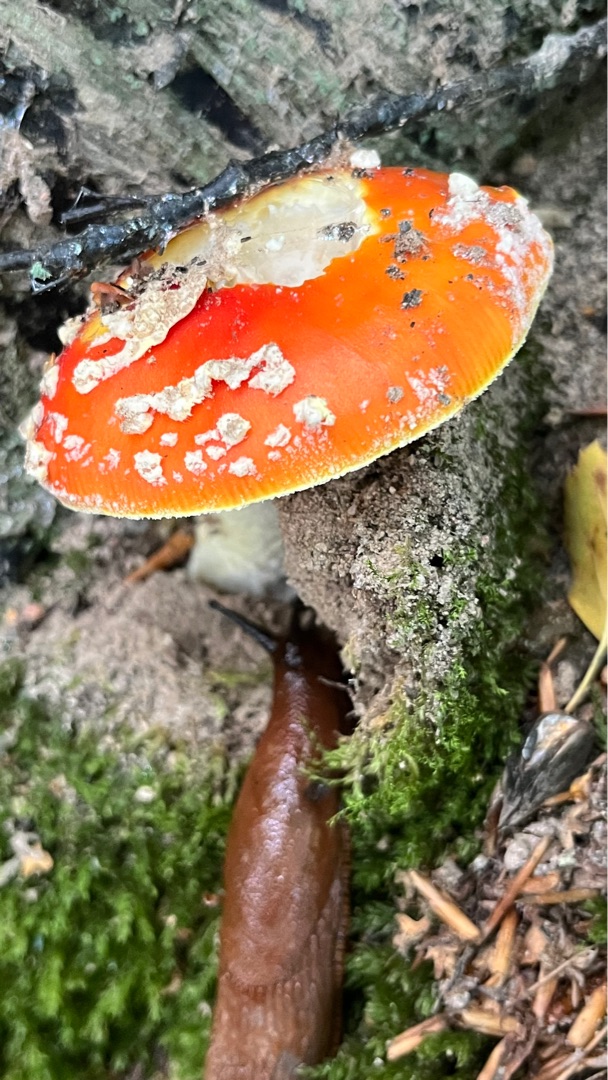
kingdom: Fungi
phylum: Basidiomycota
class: Agaricomycetes
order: Agaricales
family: Amanitaceae
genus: Amanita
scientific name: Amanita muscaria
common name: Rød fluesvamp
